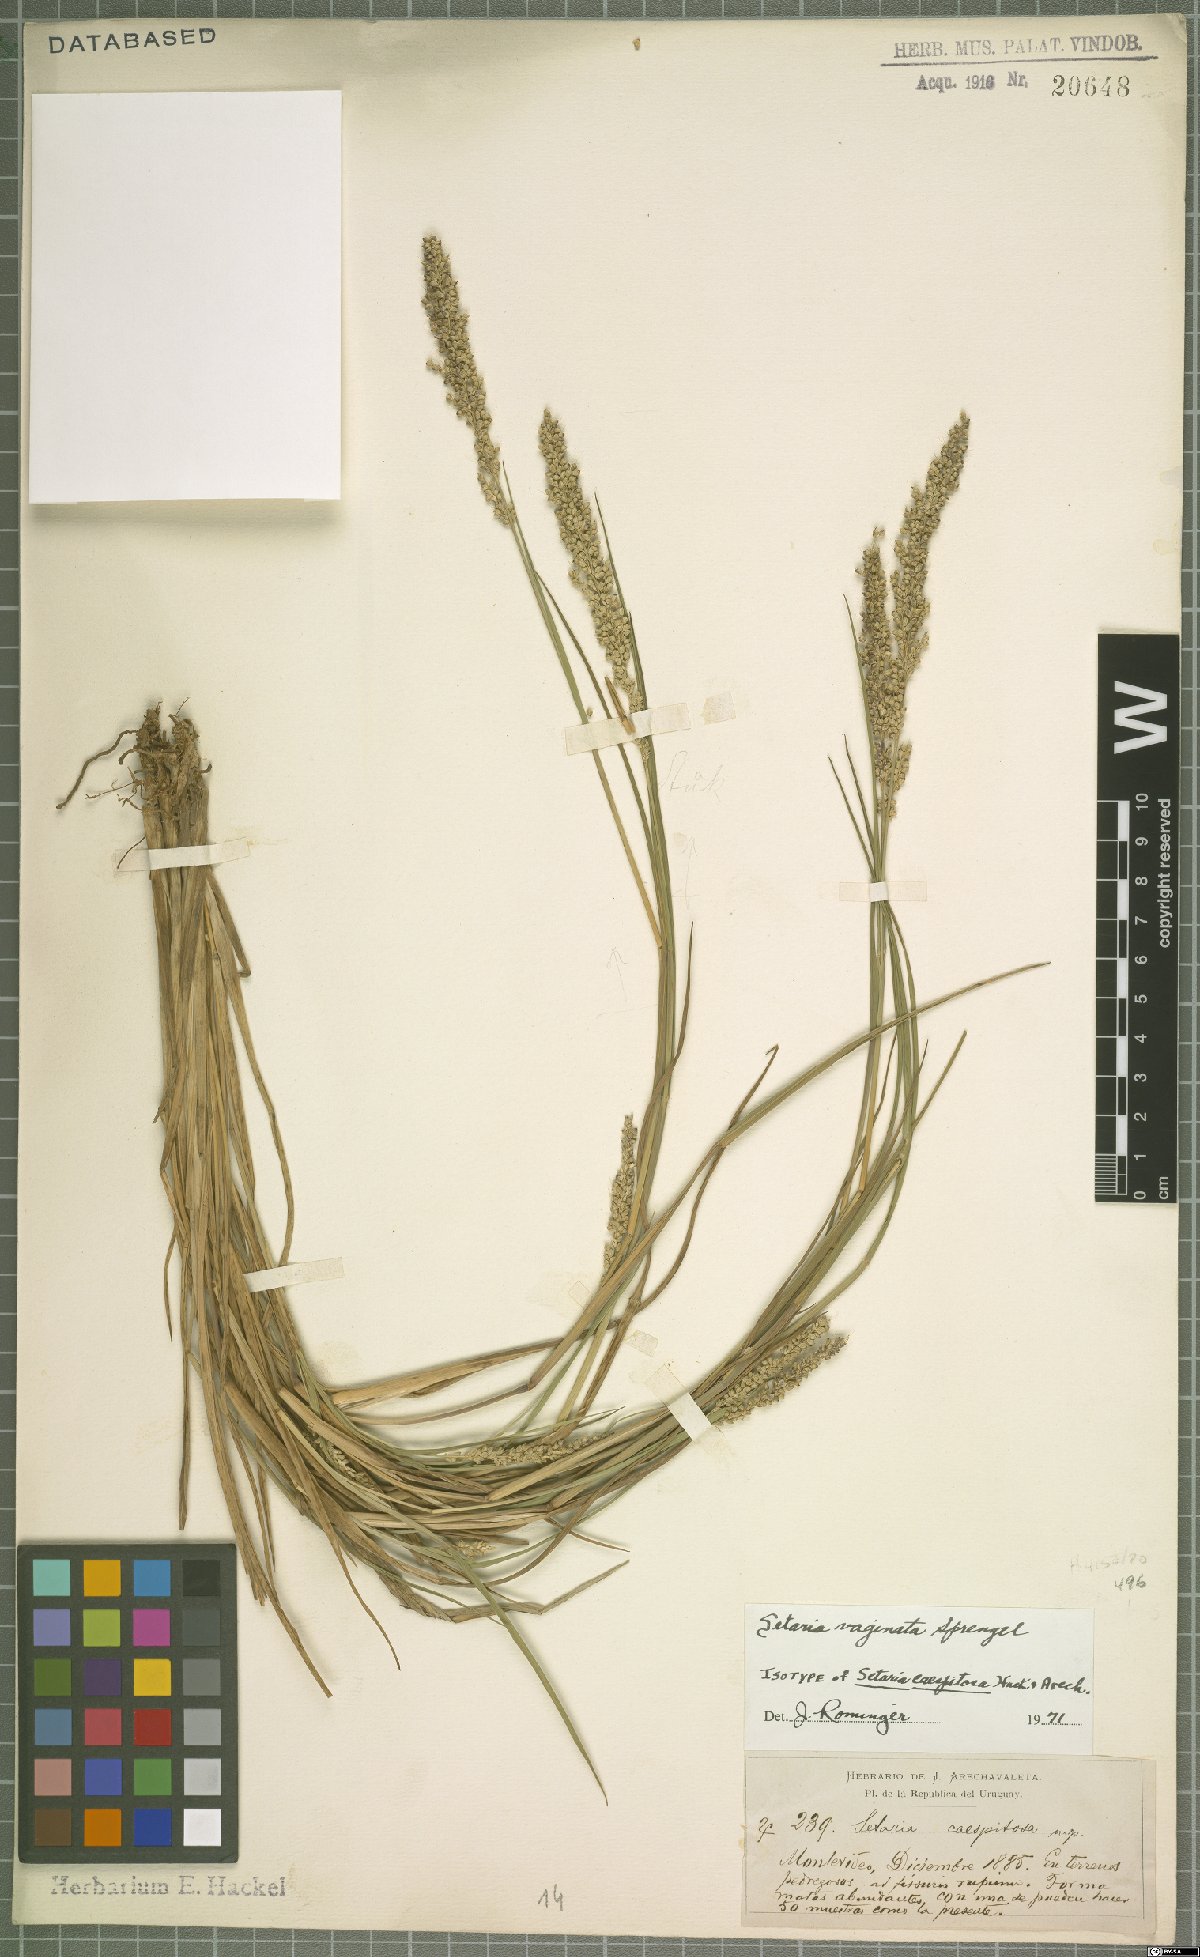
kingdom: Plantae
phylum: Tracheophyta
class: Liliopsida
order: Poales
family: Poaceae
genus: Setaria
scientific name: Setaria vaginata
